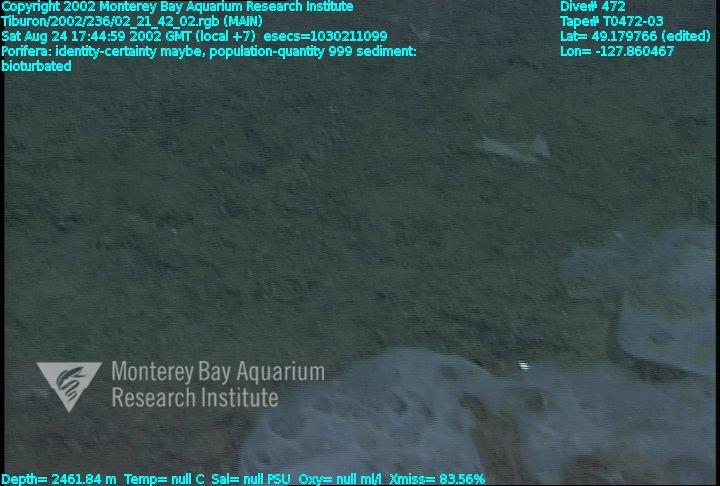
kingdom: Animalia
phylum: Porifera
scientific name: Porifera
